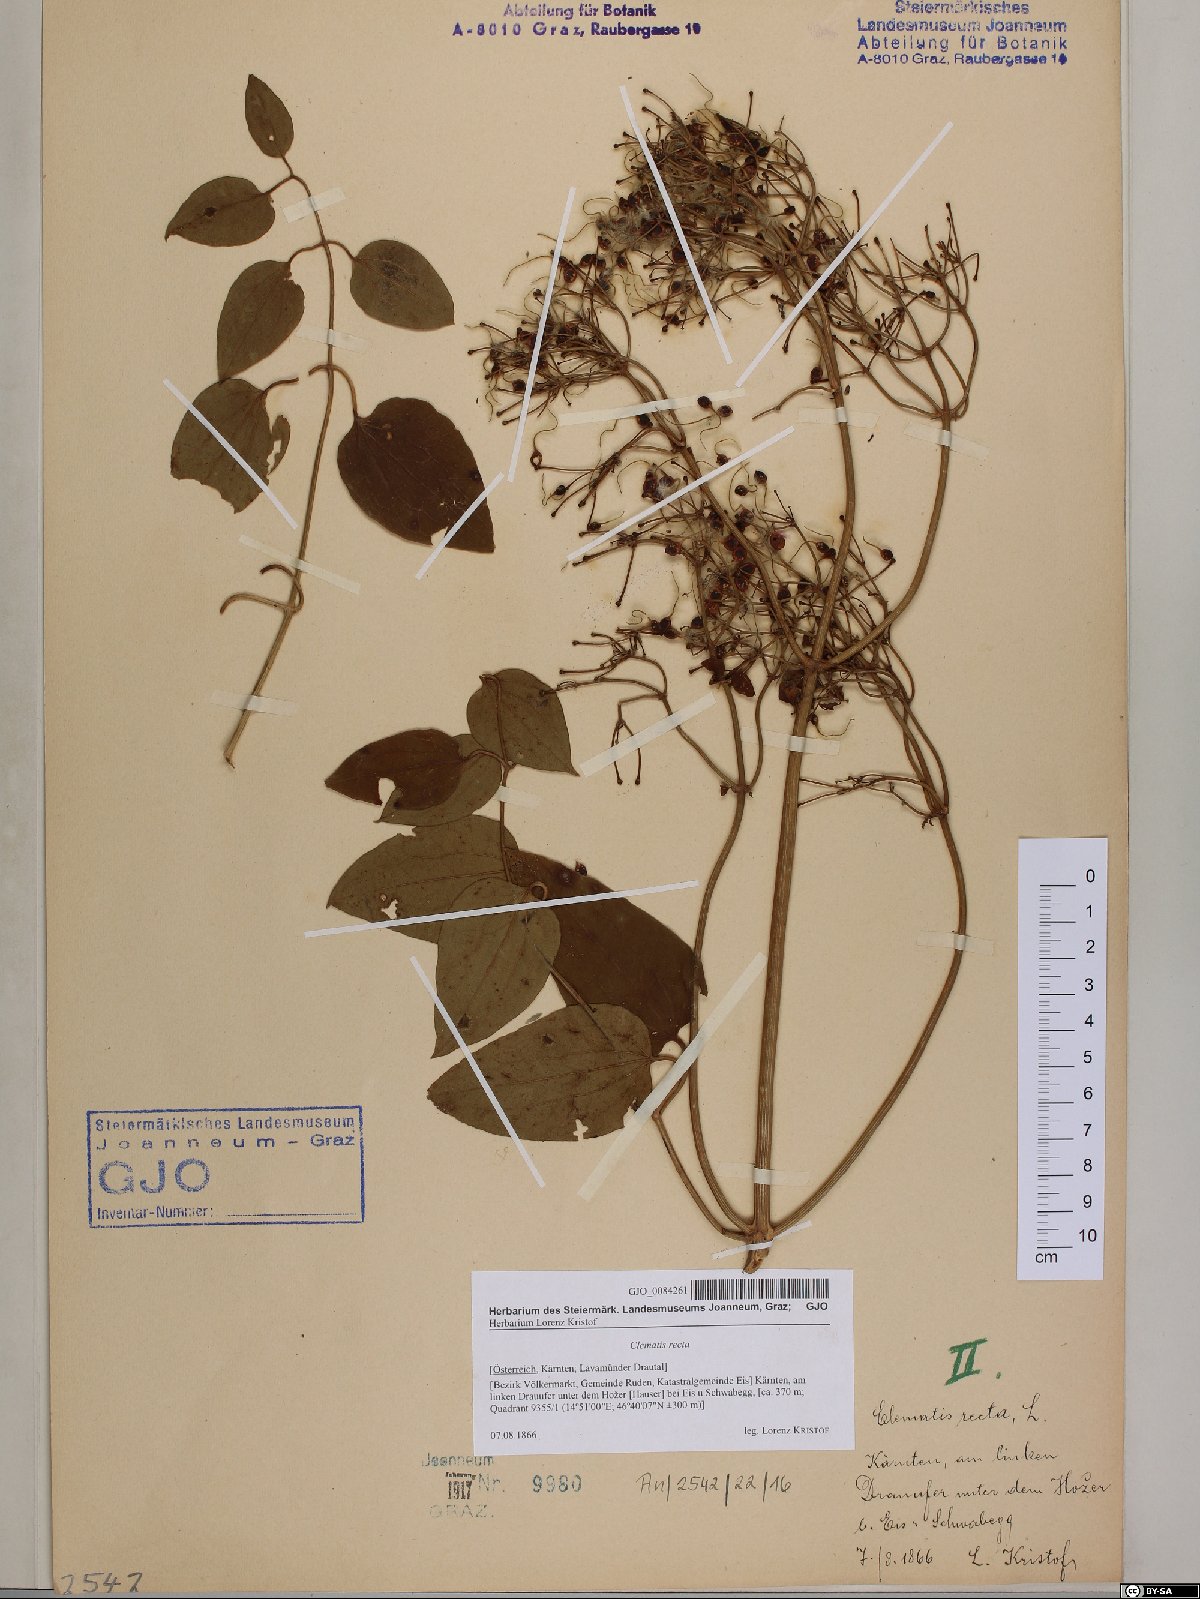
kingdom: Plantae
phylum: Tracheophyta
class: Magnoliopsida
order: Ranunculales
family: Ranunculaceae
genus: Clematis
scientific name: Clematis recta
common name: Ground clematis
